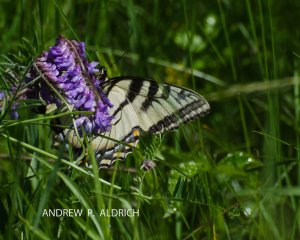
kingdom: Animalia
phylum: Arthropoda
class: Insecta
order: Lepidoptera
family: Papilionidae
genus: Pterourus
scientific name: Pterourus canadensis
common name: Canadian Tiger Swallowtail
